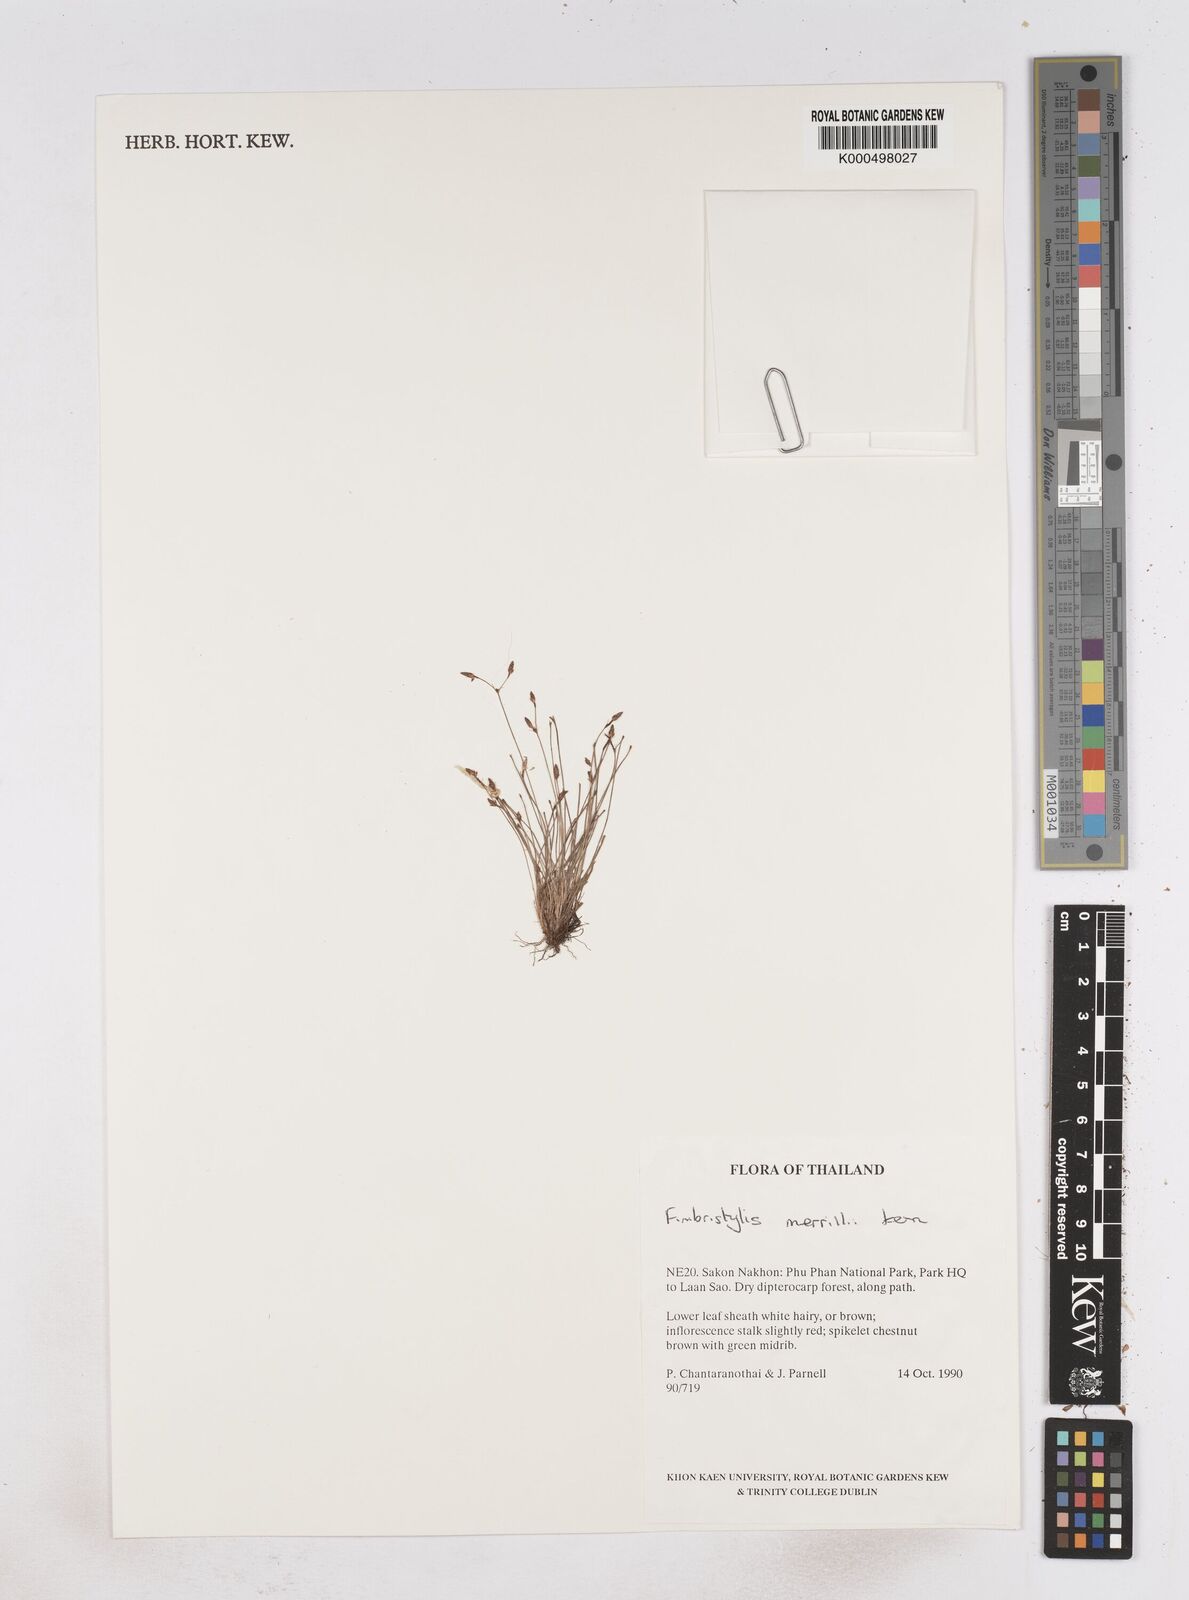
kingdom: Plantae
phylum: Tracheophyta
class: Liliopsida
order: Poales
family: Cyperaceae
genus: Fimbristylis
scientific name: Fimbristylis merrillii
